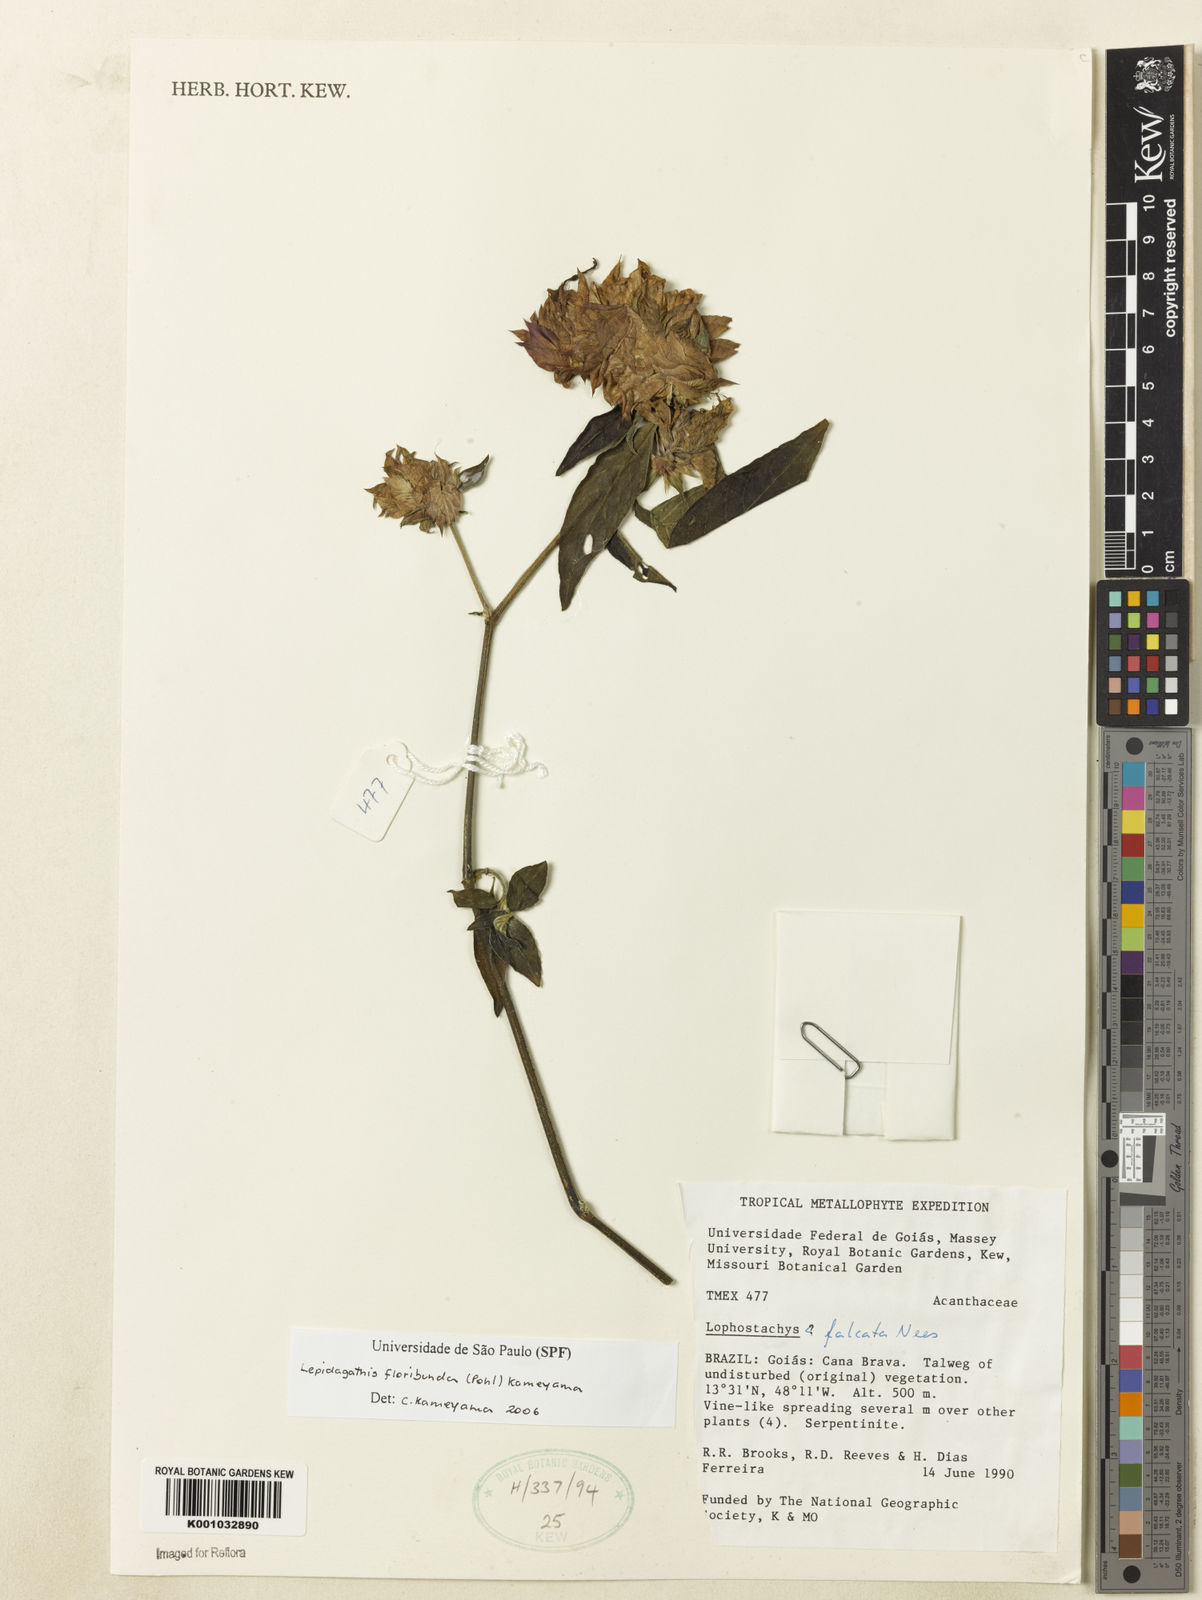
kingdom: Plantae
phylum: Tracheophyta
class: Magnoliopsida
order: Lamiales
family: Acanthaceae
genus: Lepidagathis
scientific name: Lepidagathis floribunda
